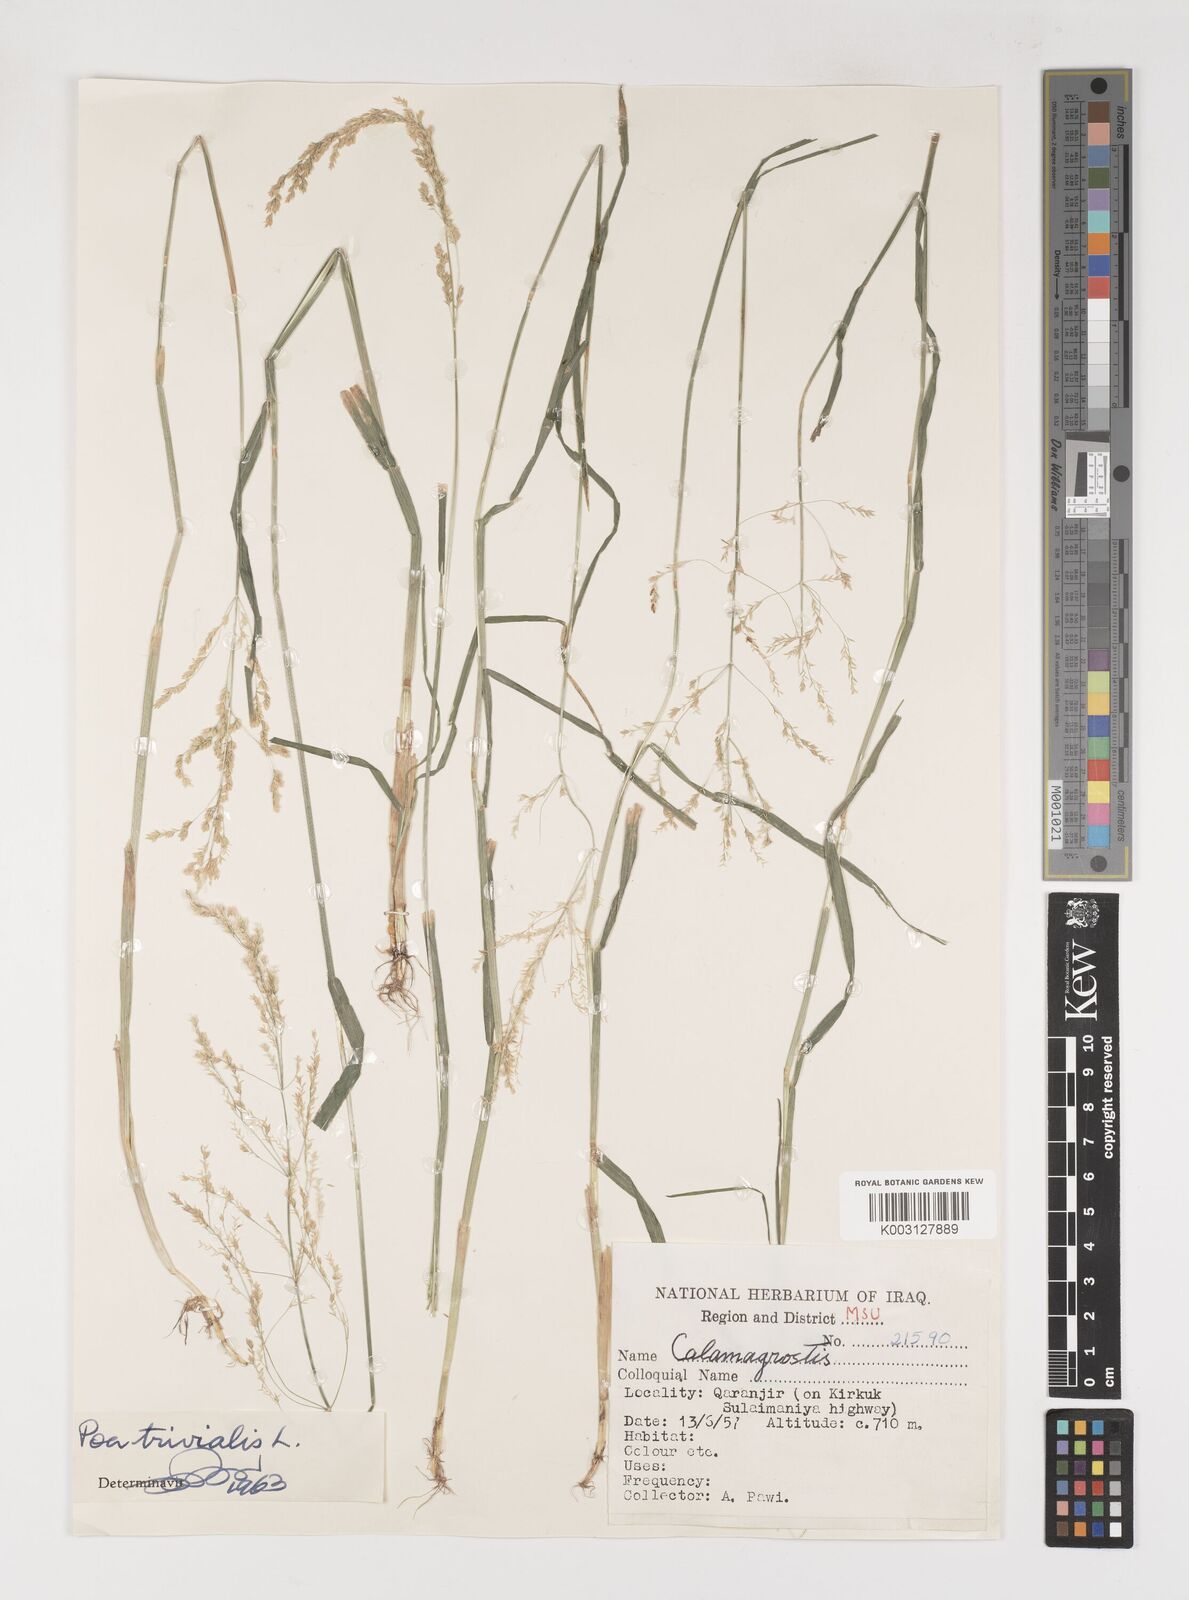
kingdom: Plantae
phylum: Tracheophyta
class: Liliopsida
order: Poales
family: Poaceae
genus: Poa
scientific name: Poa trivialis
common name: Rough bluegrass
